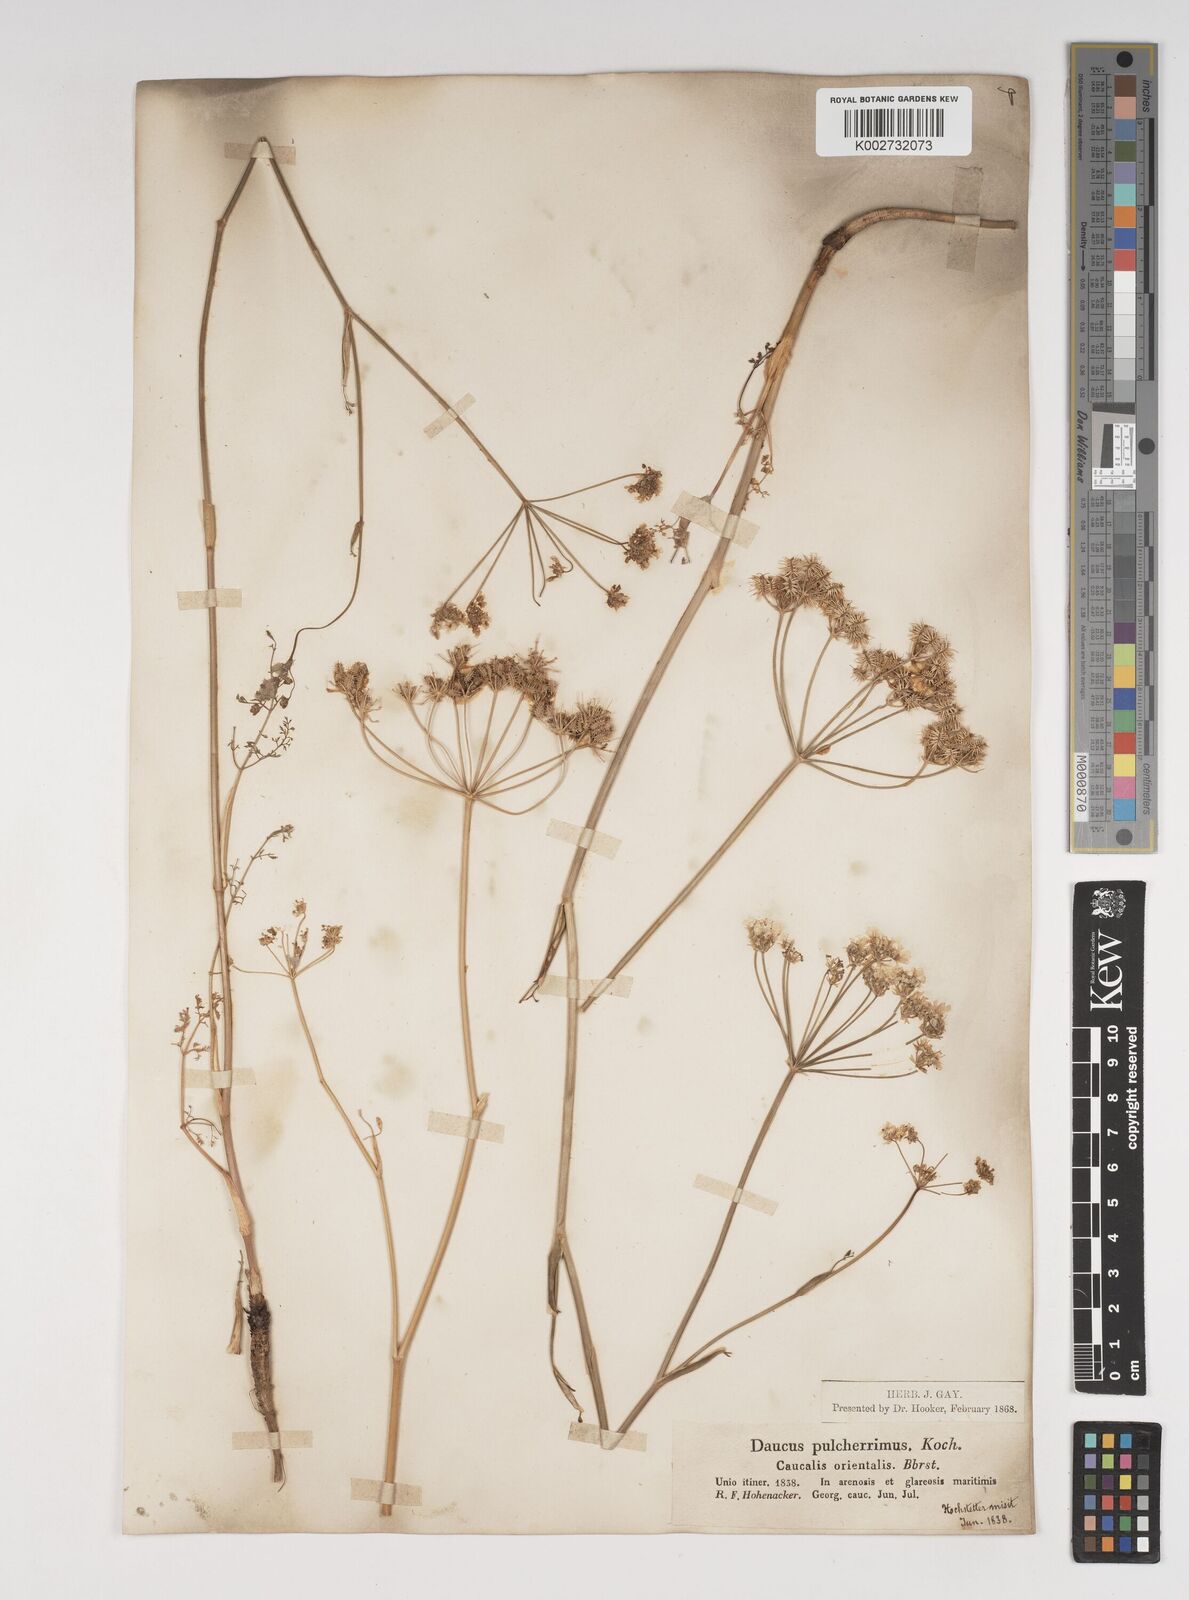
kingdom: Plantae
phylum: Tracheophyta
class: Magnoliopsida
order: Apiales
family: Apiaceae
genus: Astrodaucus
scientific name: Astrodaucus
